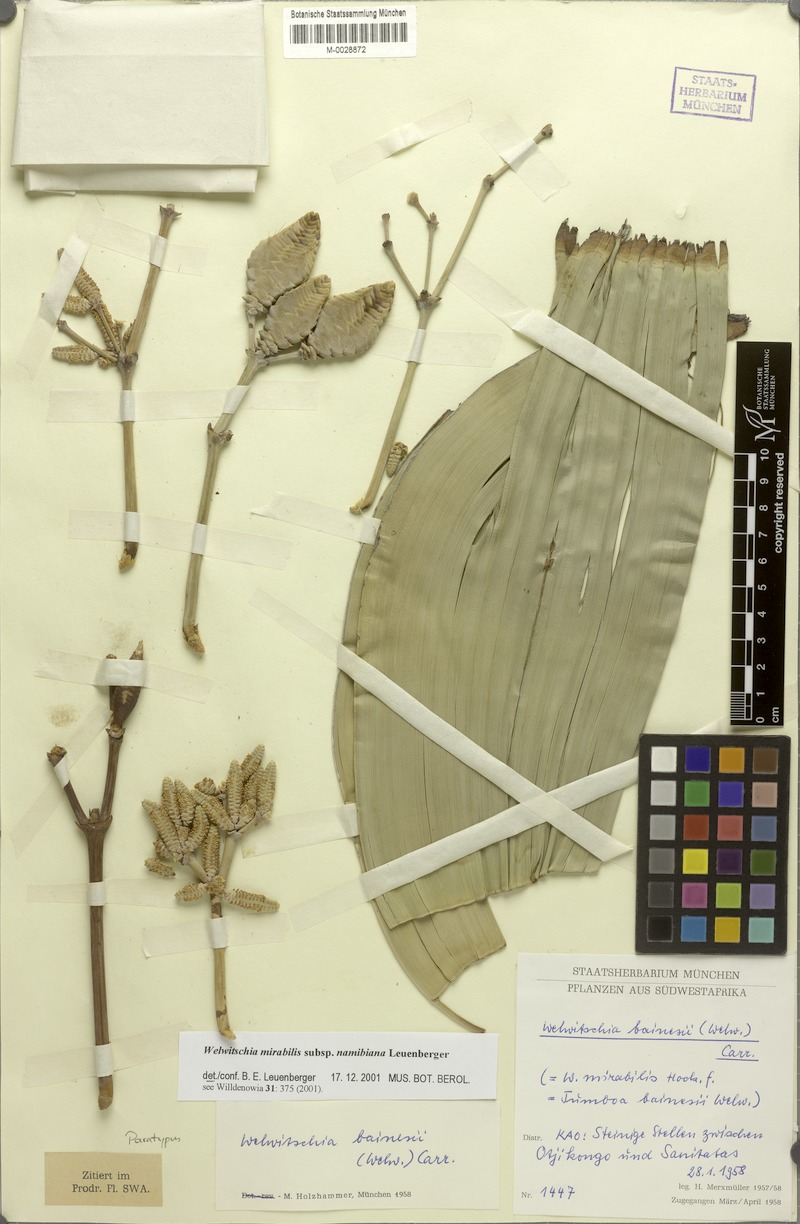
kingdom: Plantae
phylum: Tracheophyta
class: Gnetopsida
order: Welwitschiales
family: Welwitschiaceae
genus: Welwitschia
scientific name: Welwitschia mirabilis
